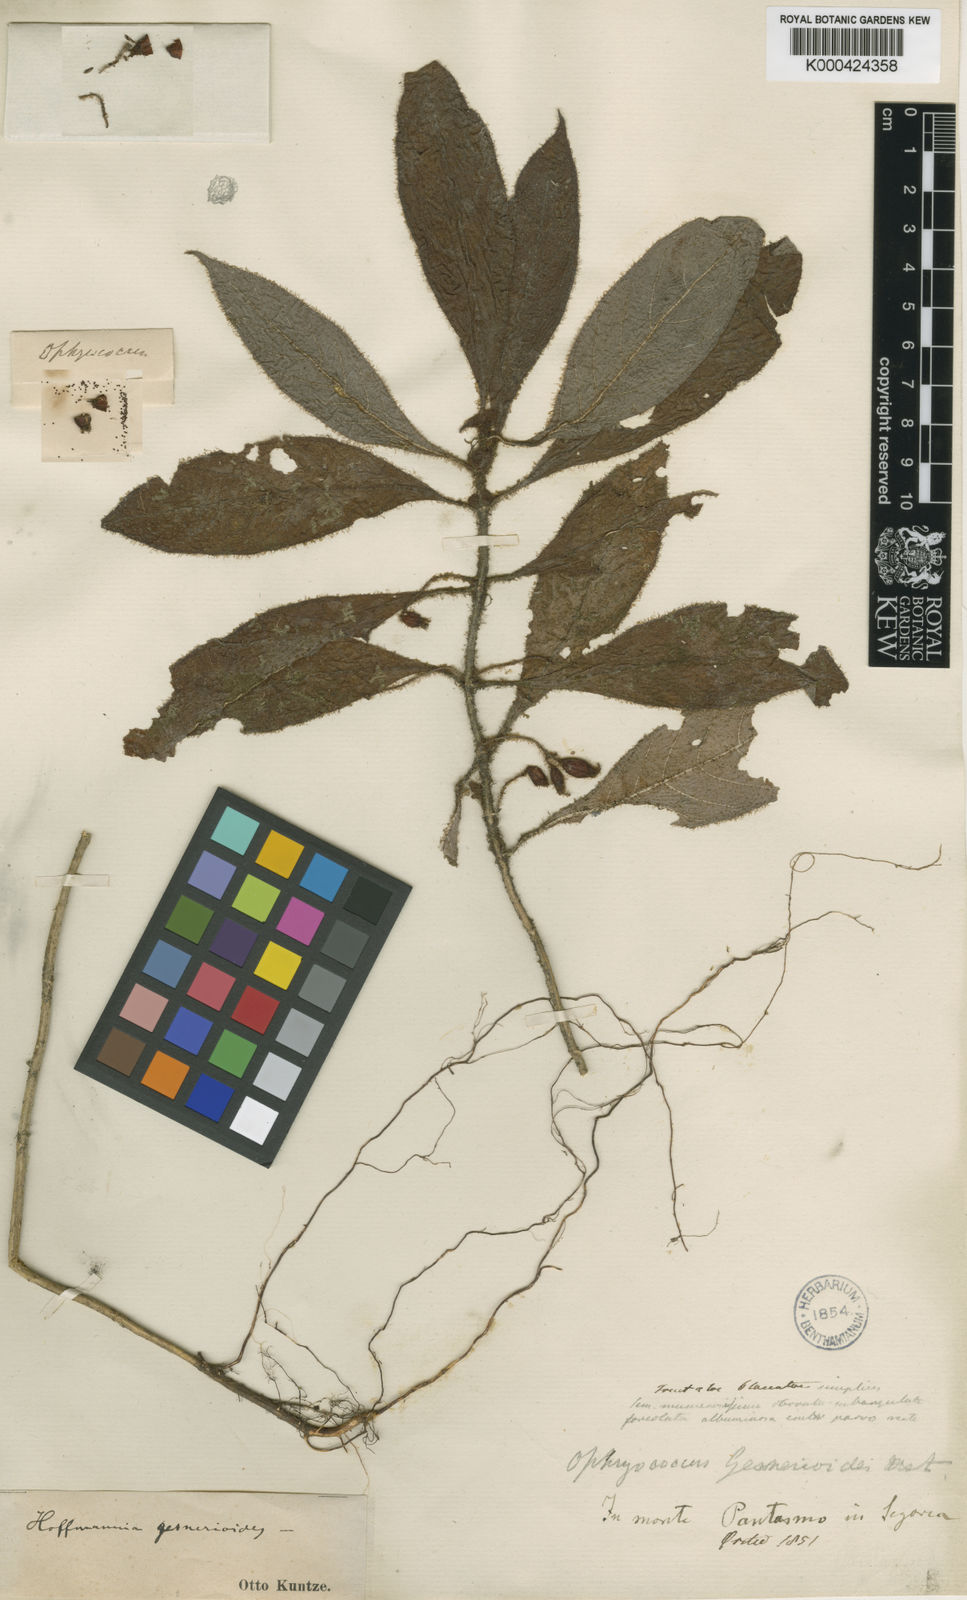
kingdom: Plantae
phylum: Tracheophyta
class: Magnoliopsida
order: Gentianales
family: Rubiaceae
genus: Hoffmannia
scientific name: Hoffmannia
